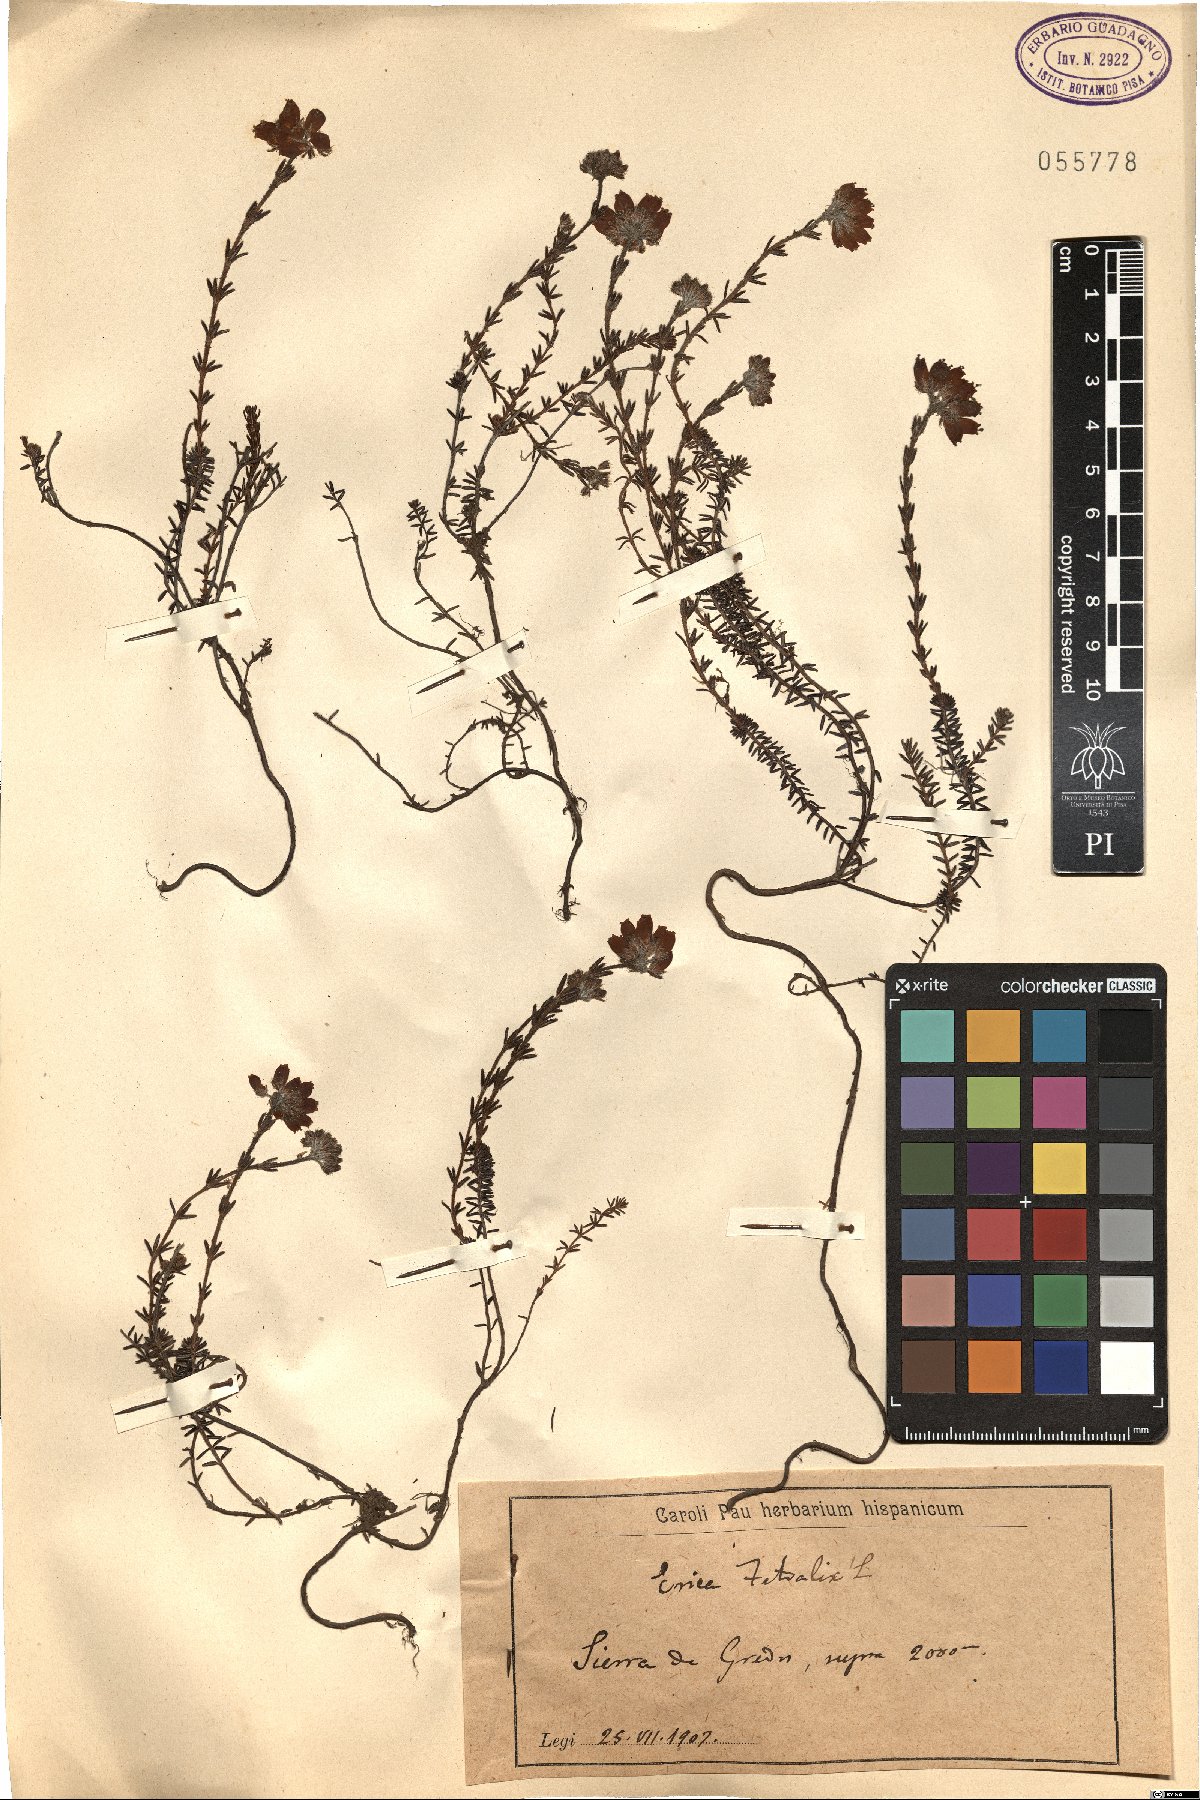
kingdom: Plantae
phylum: Tracheophyta
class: Magnoliopsida
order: Ericales
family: Ericaceae
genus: Erica
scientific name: Erica tetralix
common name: Cross-leaved heath
